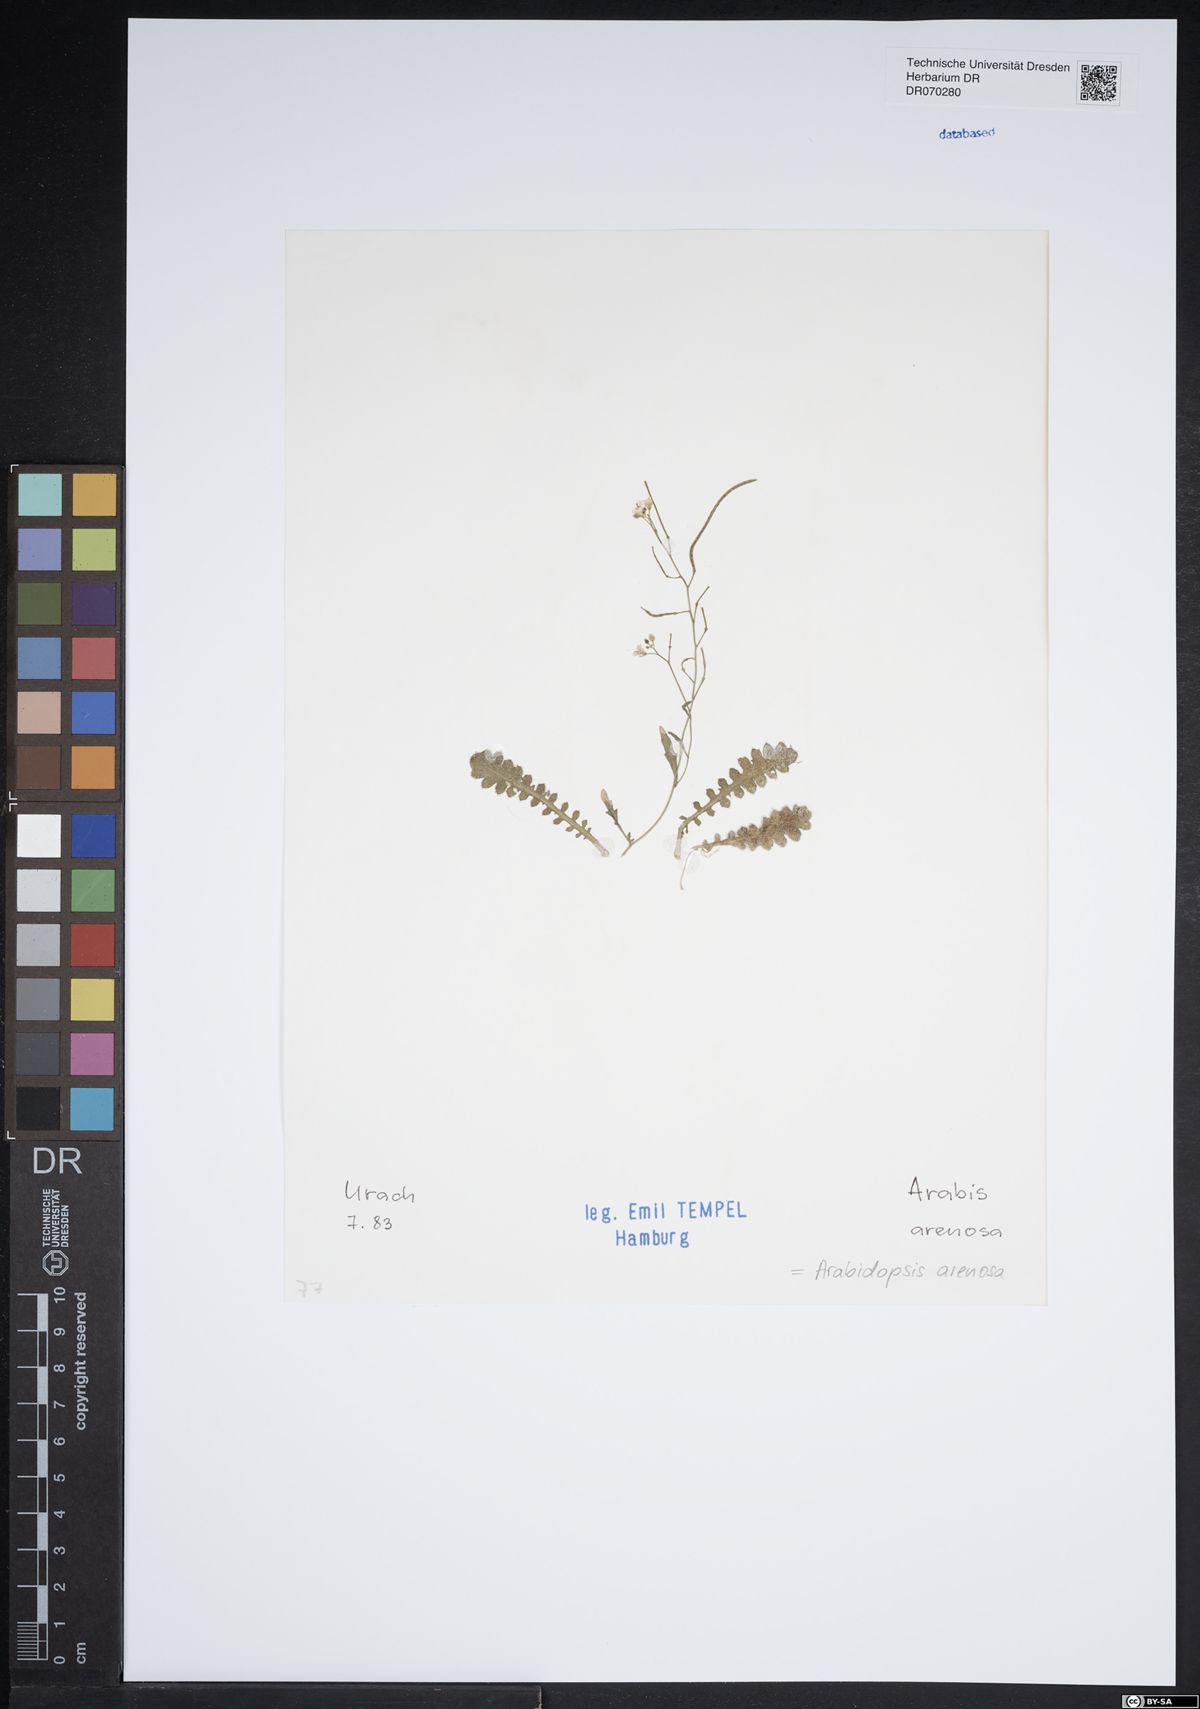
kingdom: Plantae
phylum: Tracheophyta
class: Magnoliopsida
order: Brassicales
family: Brassicaceae
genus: Arabidopsis
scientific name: Arabidopsis arenosa
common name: Sand rock-cress
